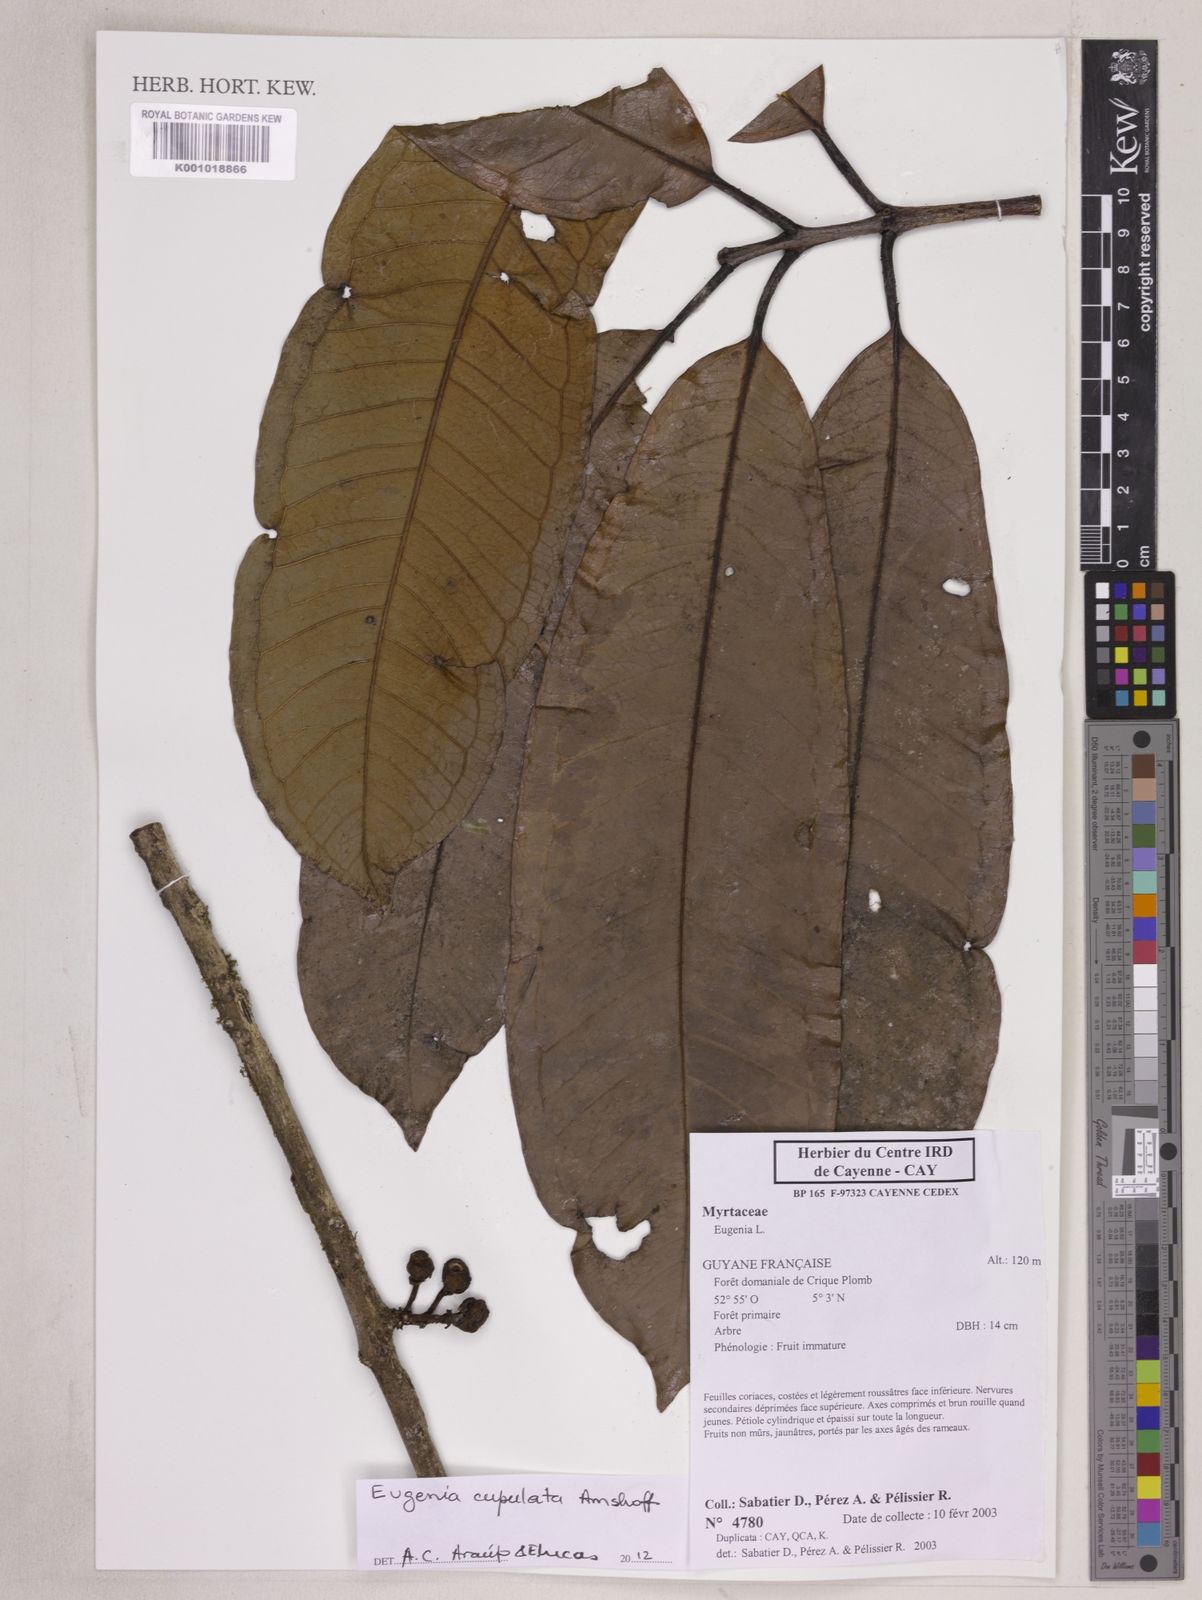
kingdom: Plantae
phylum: Tracheophyta
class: Magnoliopsida
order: Myrtales
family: Myrtaceae
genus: Eugenia
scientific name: Eugenia cupulata
